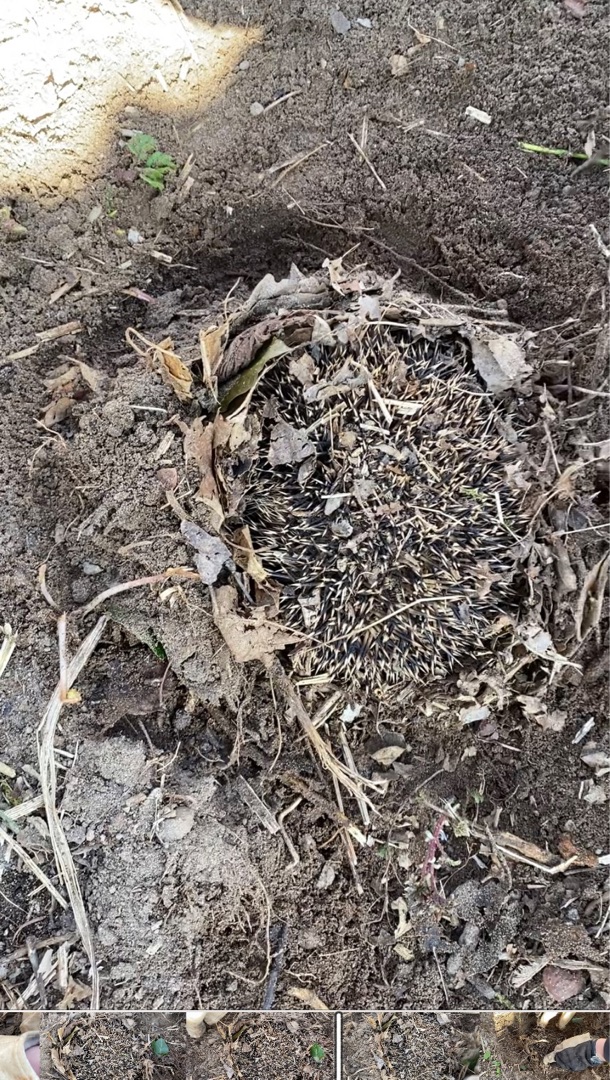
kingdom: Animalia
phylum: Chordata
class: Mammalia
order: Erinaceomorpha
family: Erinaceidae
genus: Erinaceus
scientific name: Erinaceus europaeus
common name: Pindsvin
